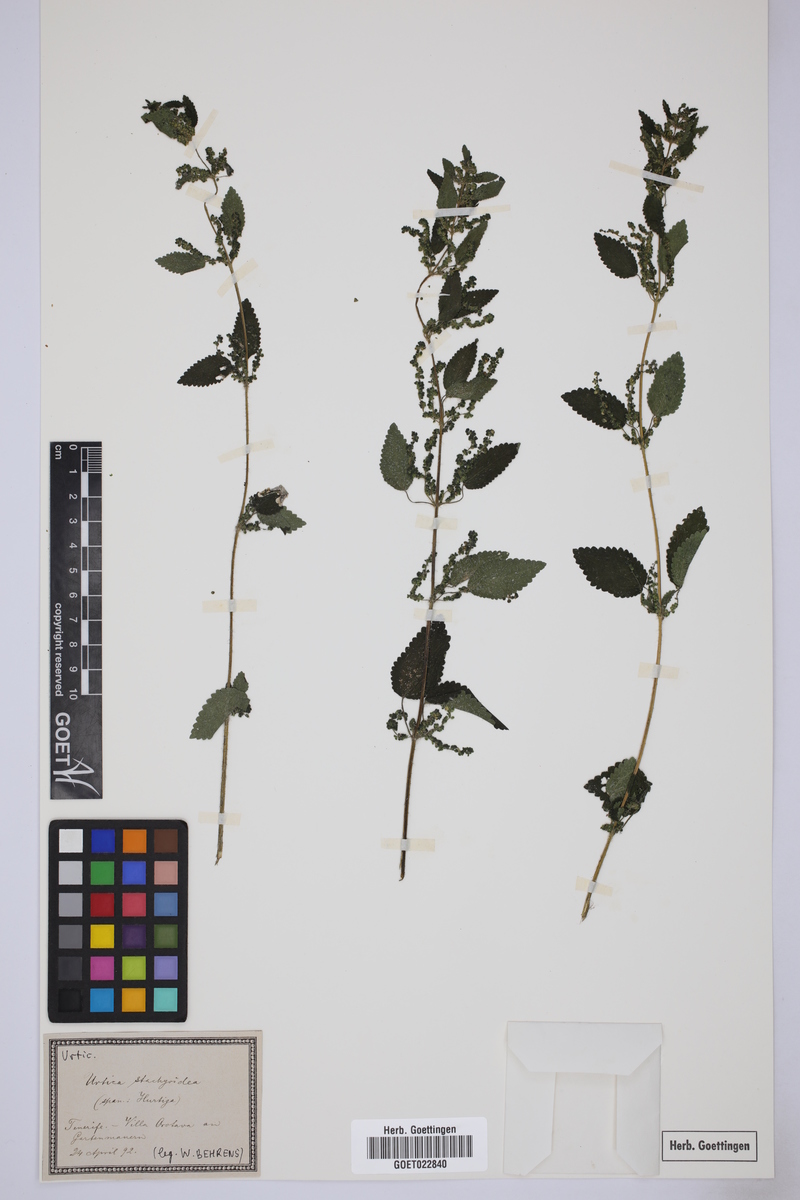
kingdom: Plantae
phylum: Tracheophyta
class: Magnoliopsida
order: Rosales
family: Urticaceae
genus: Urtica
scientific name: Urtica stachyoides
